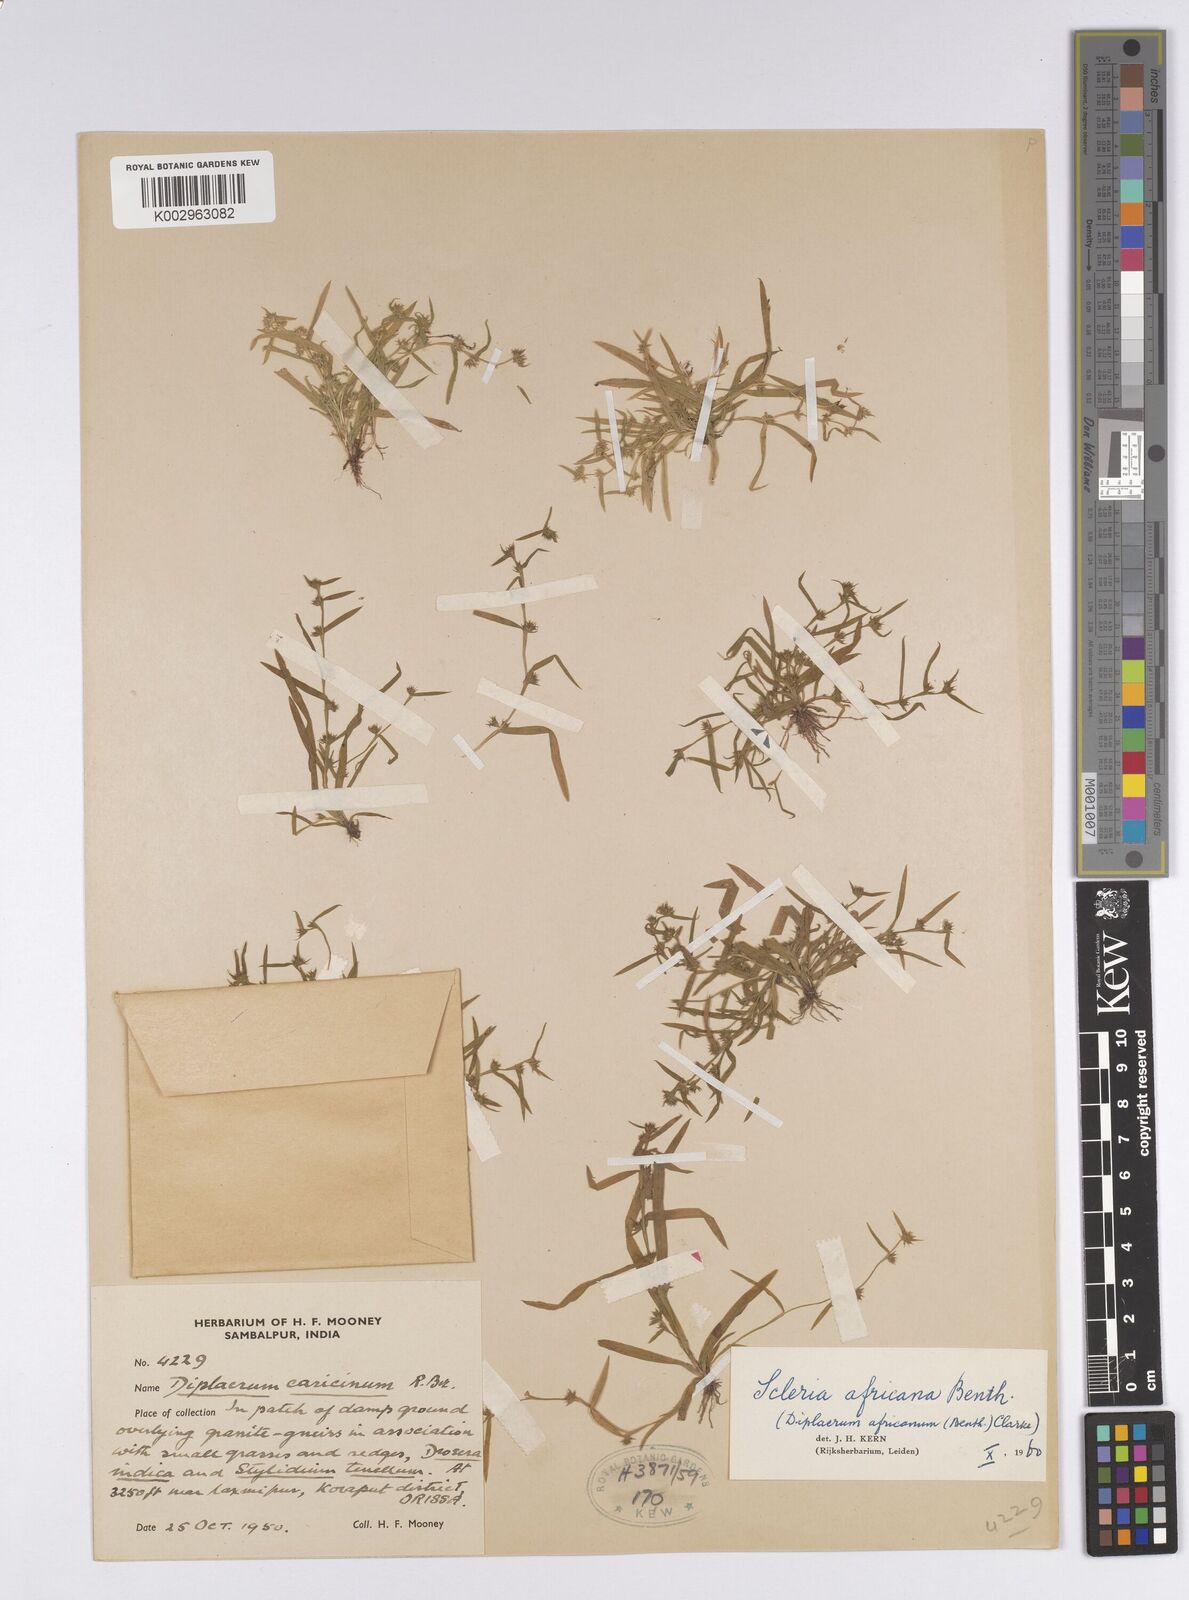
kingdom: Plantae
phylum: Tracheophyta
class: Liliopsida
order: Poales
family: Cyperaceae
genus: Diplacrum
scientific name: Diplacrum
